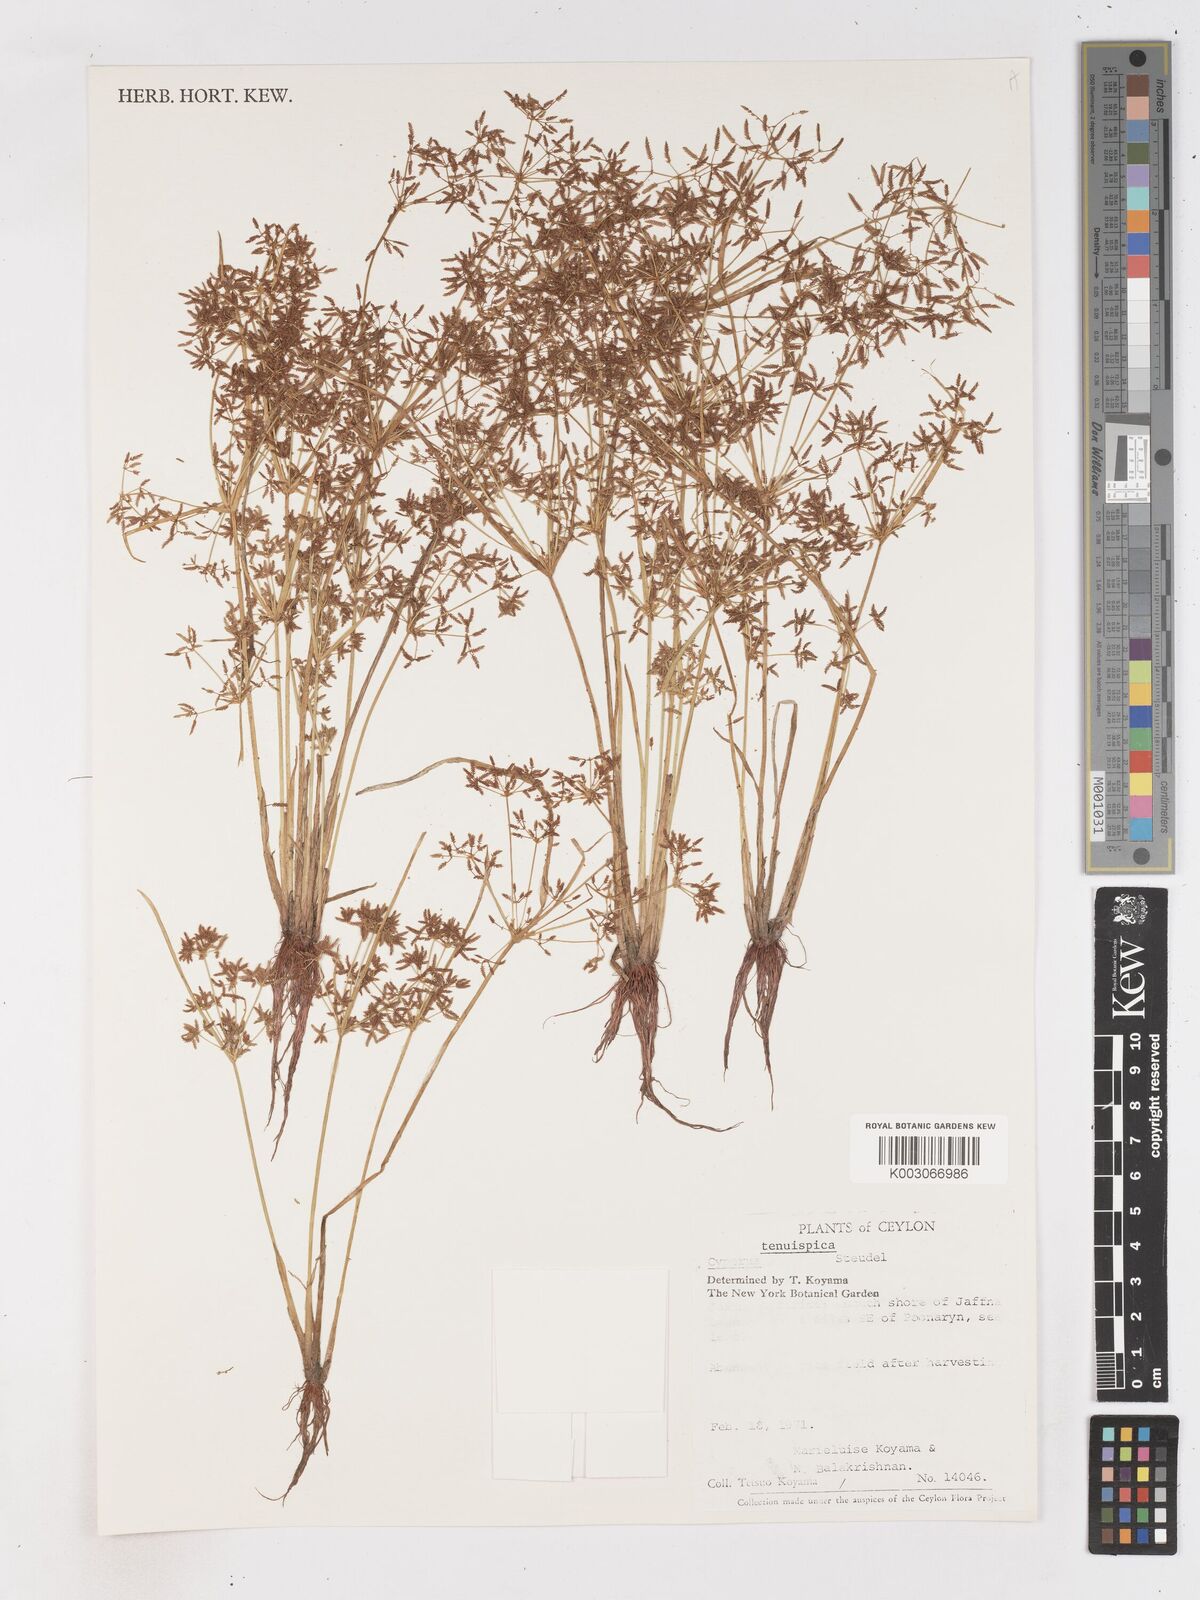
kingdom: Plantae
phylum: Tracheophyta
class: Liliopsida
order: Poales
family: Cyperaceae
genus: Cyperus
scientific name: Cyperus tenuispica
